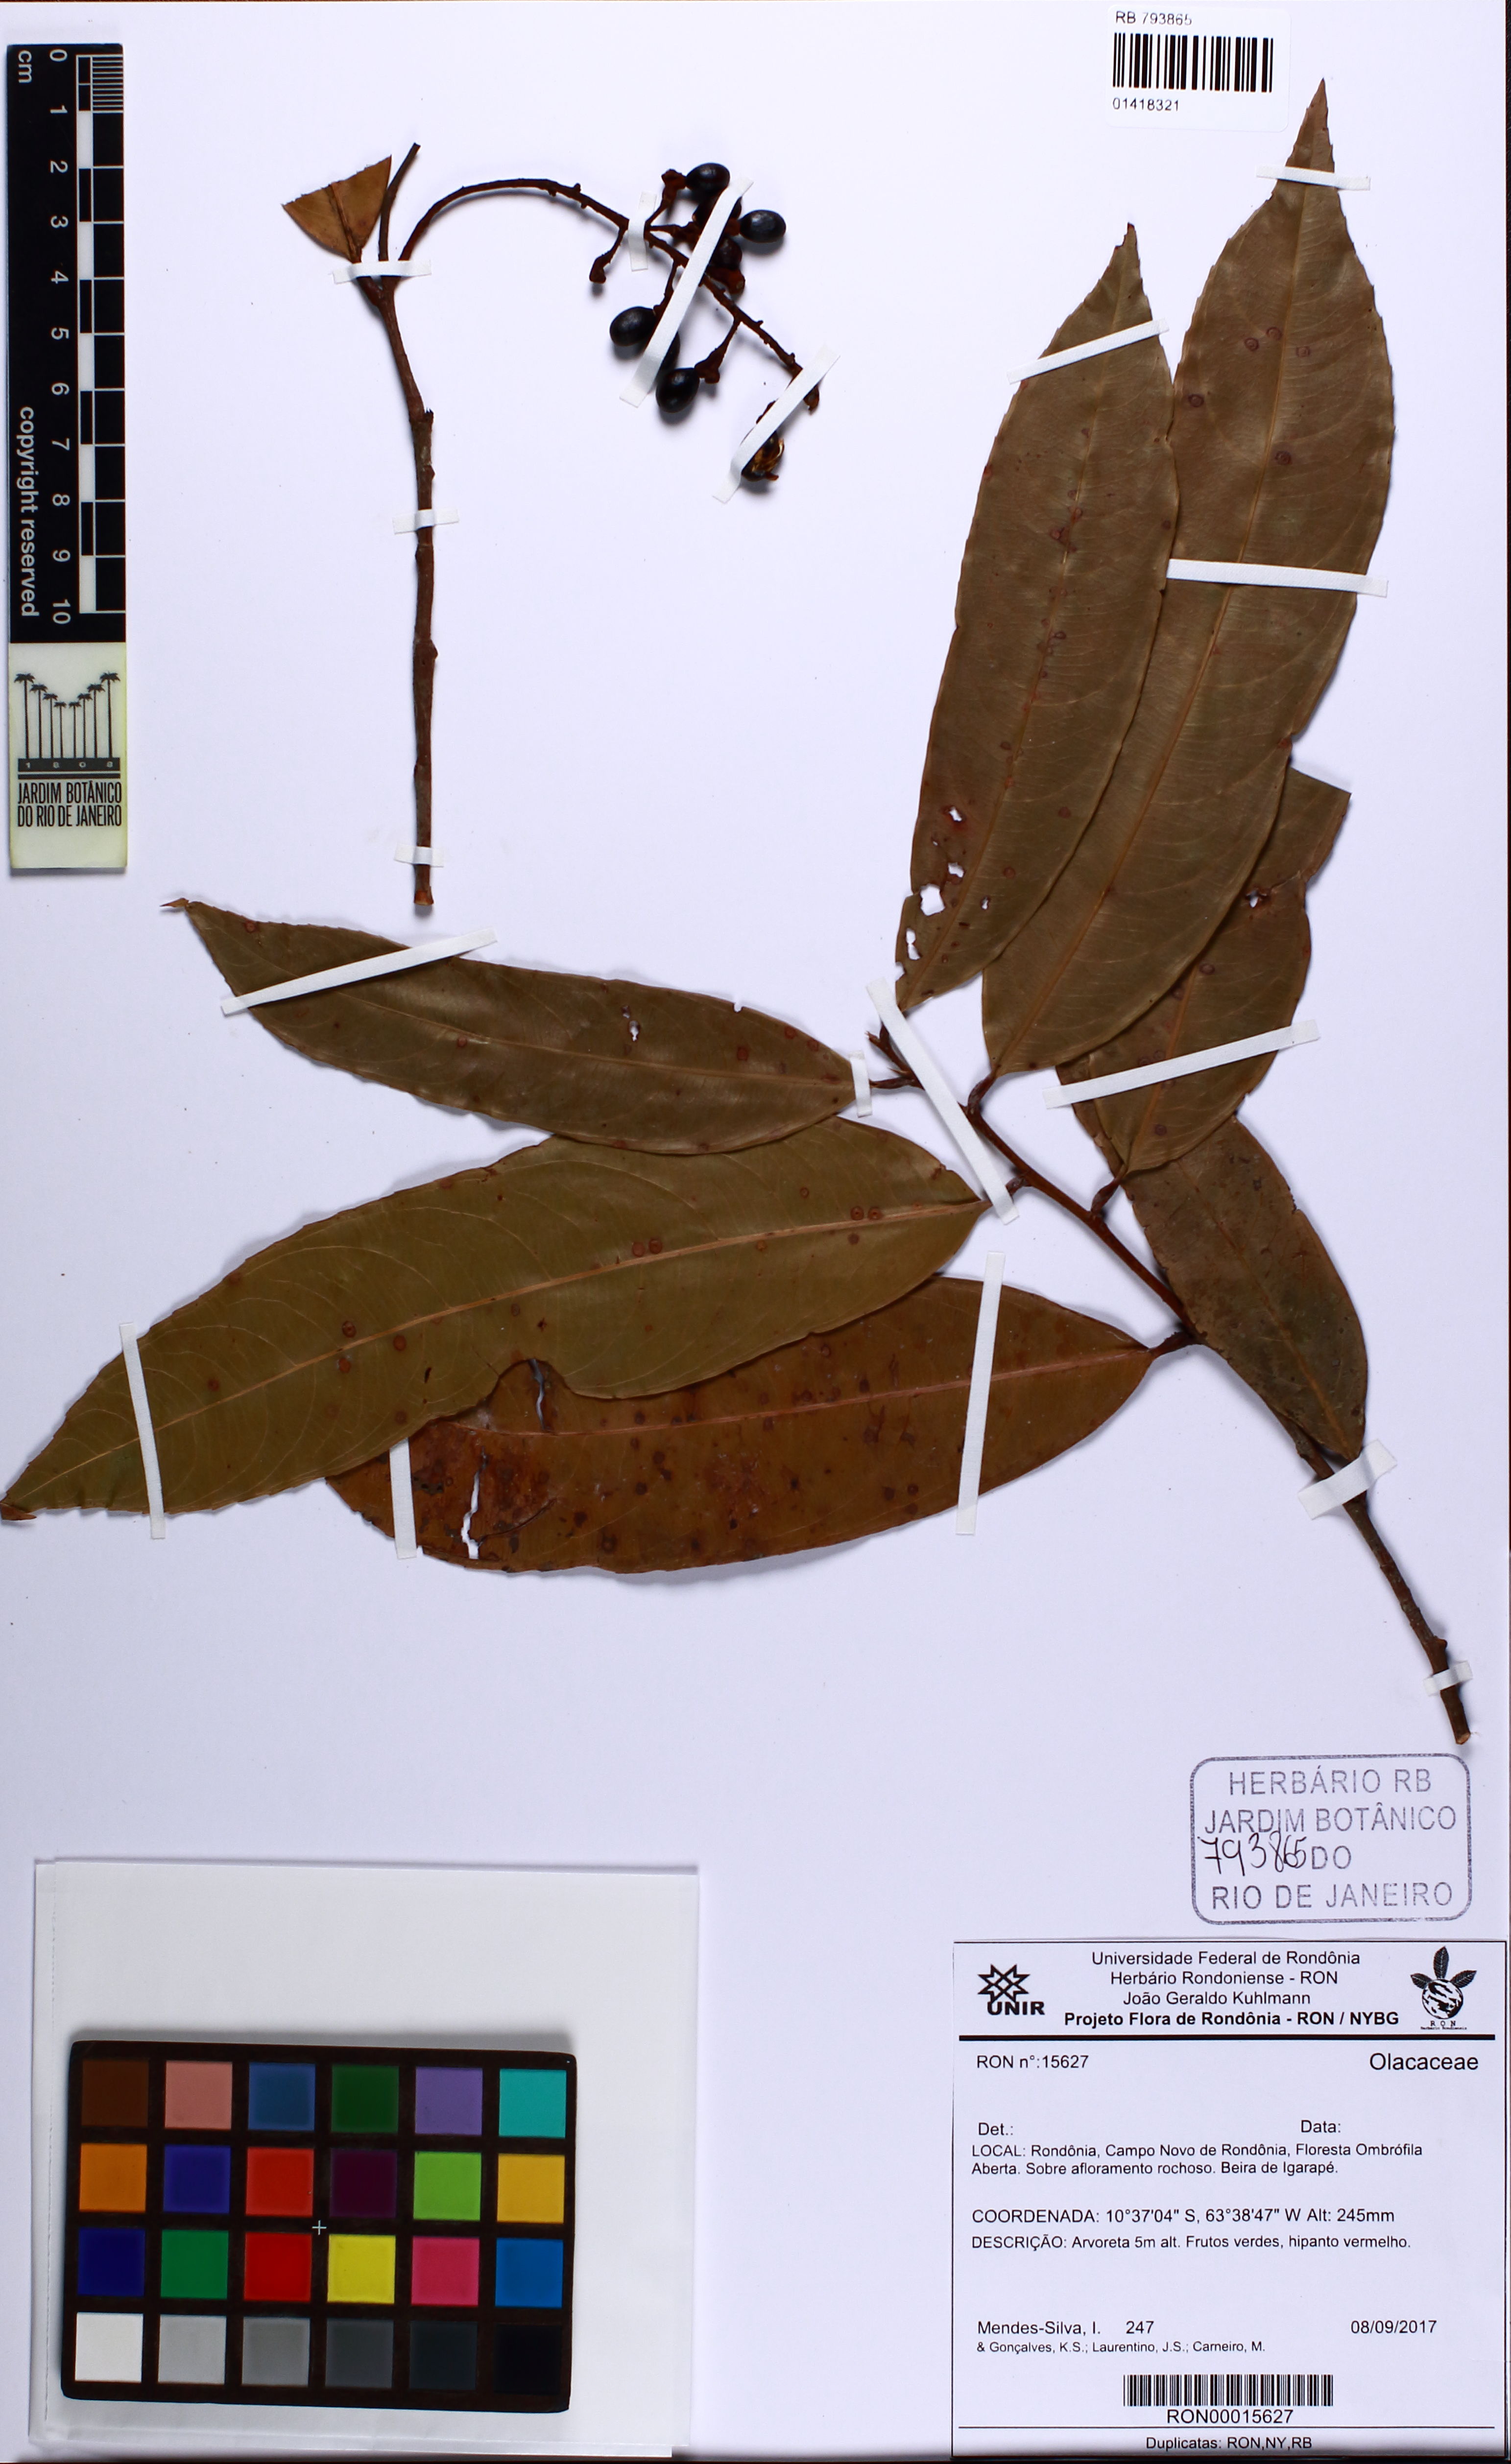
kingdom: Plantae
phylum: Tracheophyta
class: Magnoliopsida
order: Santalales
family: Olacaceae
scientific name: Olacaceae
